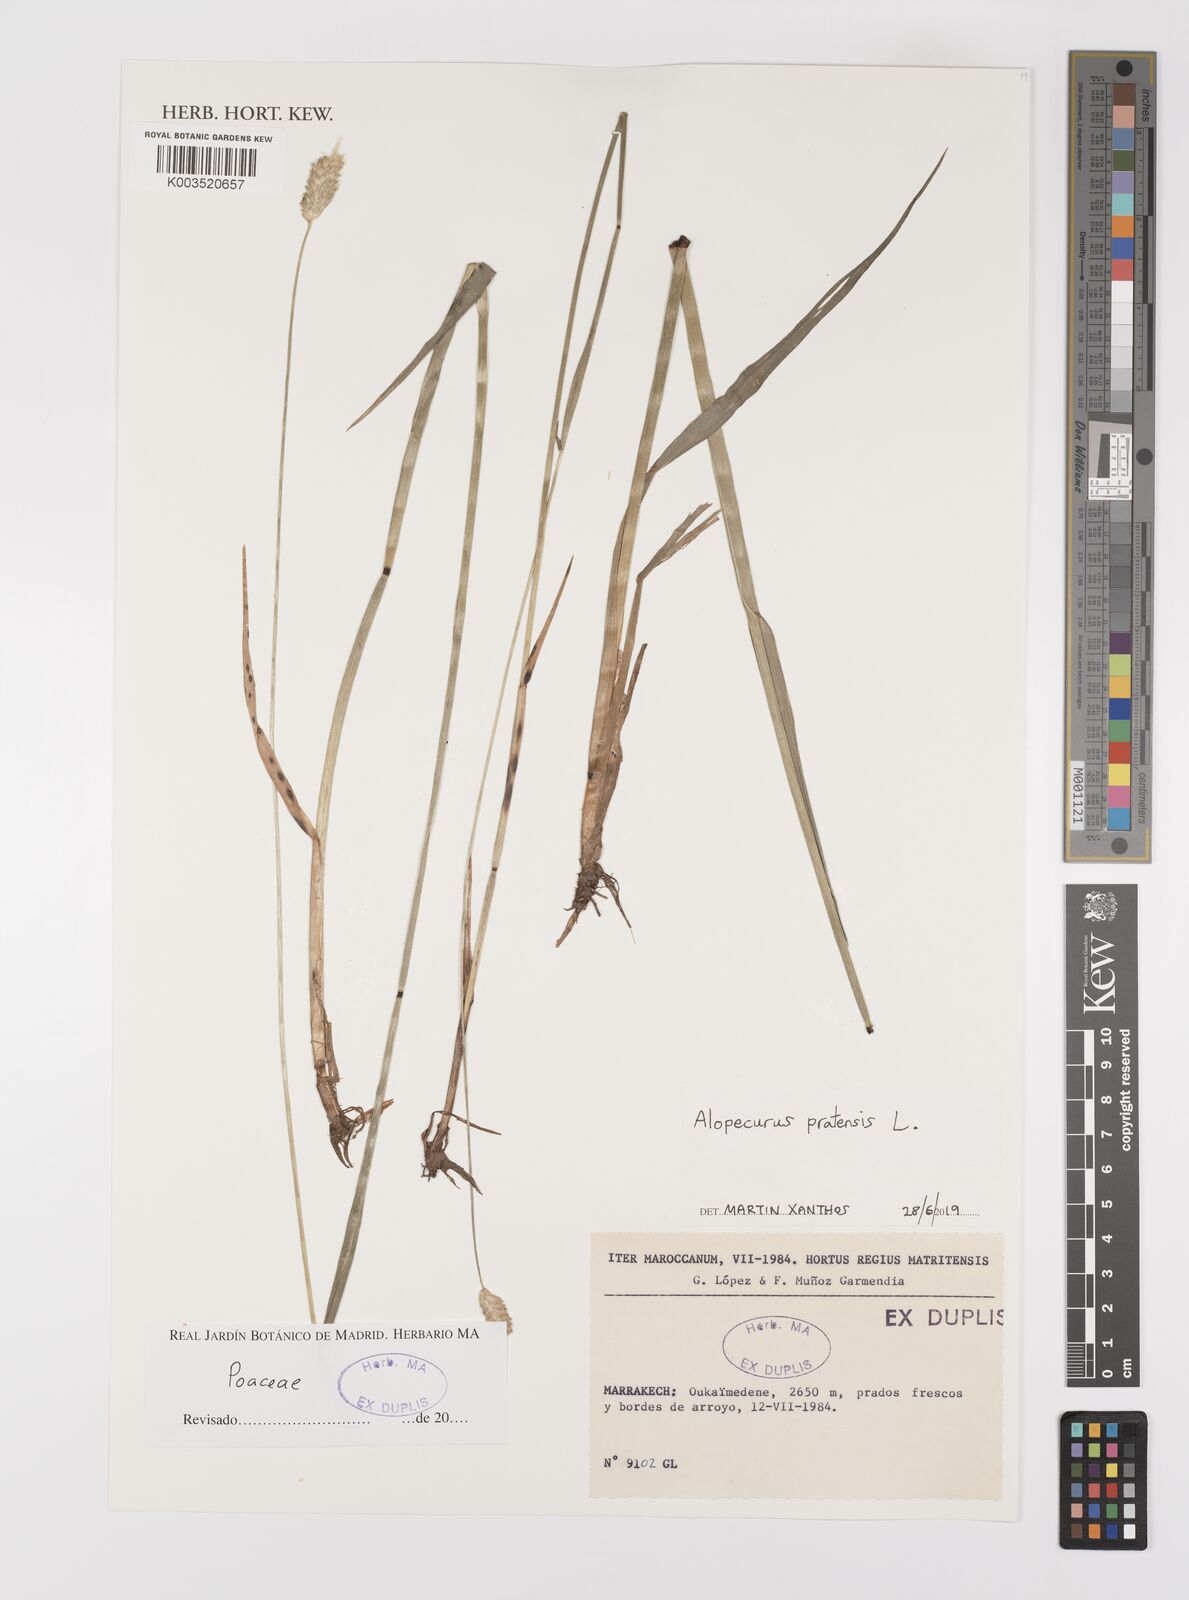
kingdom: Plantae
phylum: Tracheophyta
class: Liliopsida
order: Poales
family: Poaceae
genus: Alopecurus
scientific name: Alopecurus pratensis
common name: Meadow foxtail
